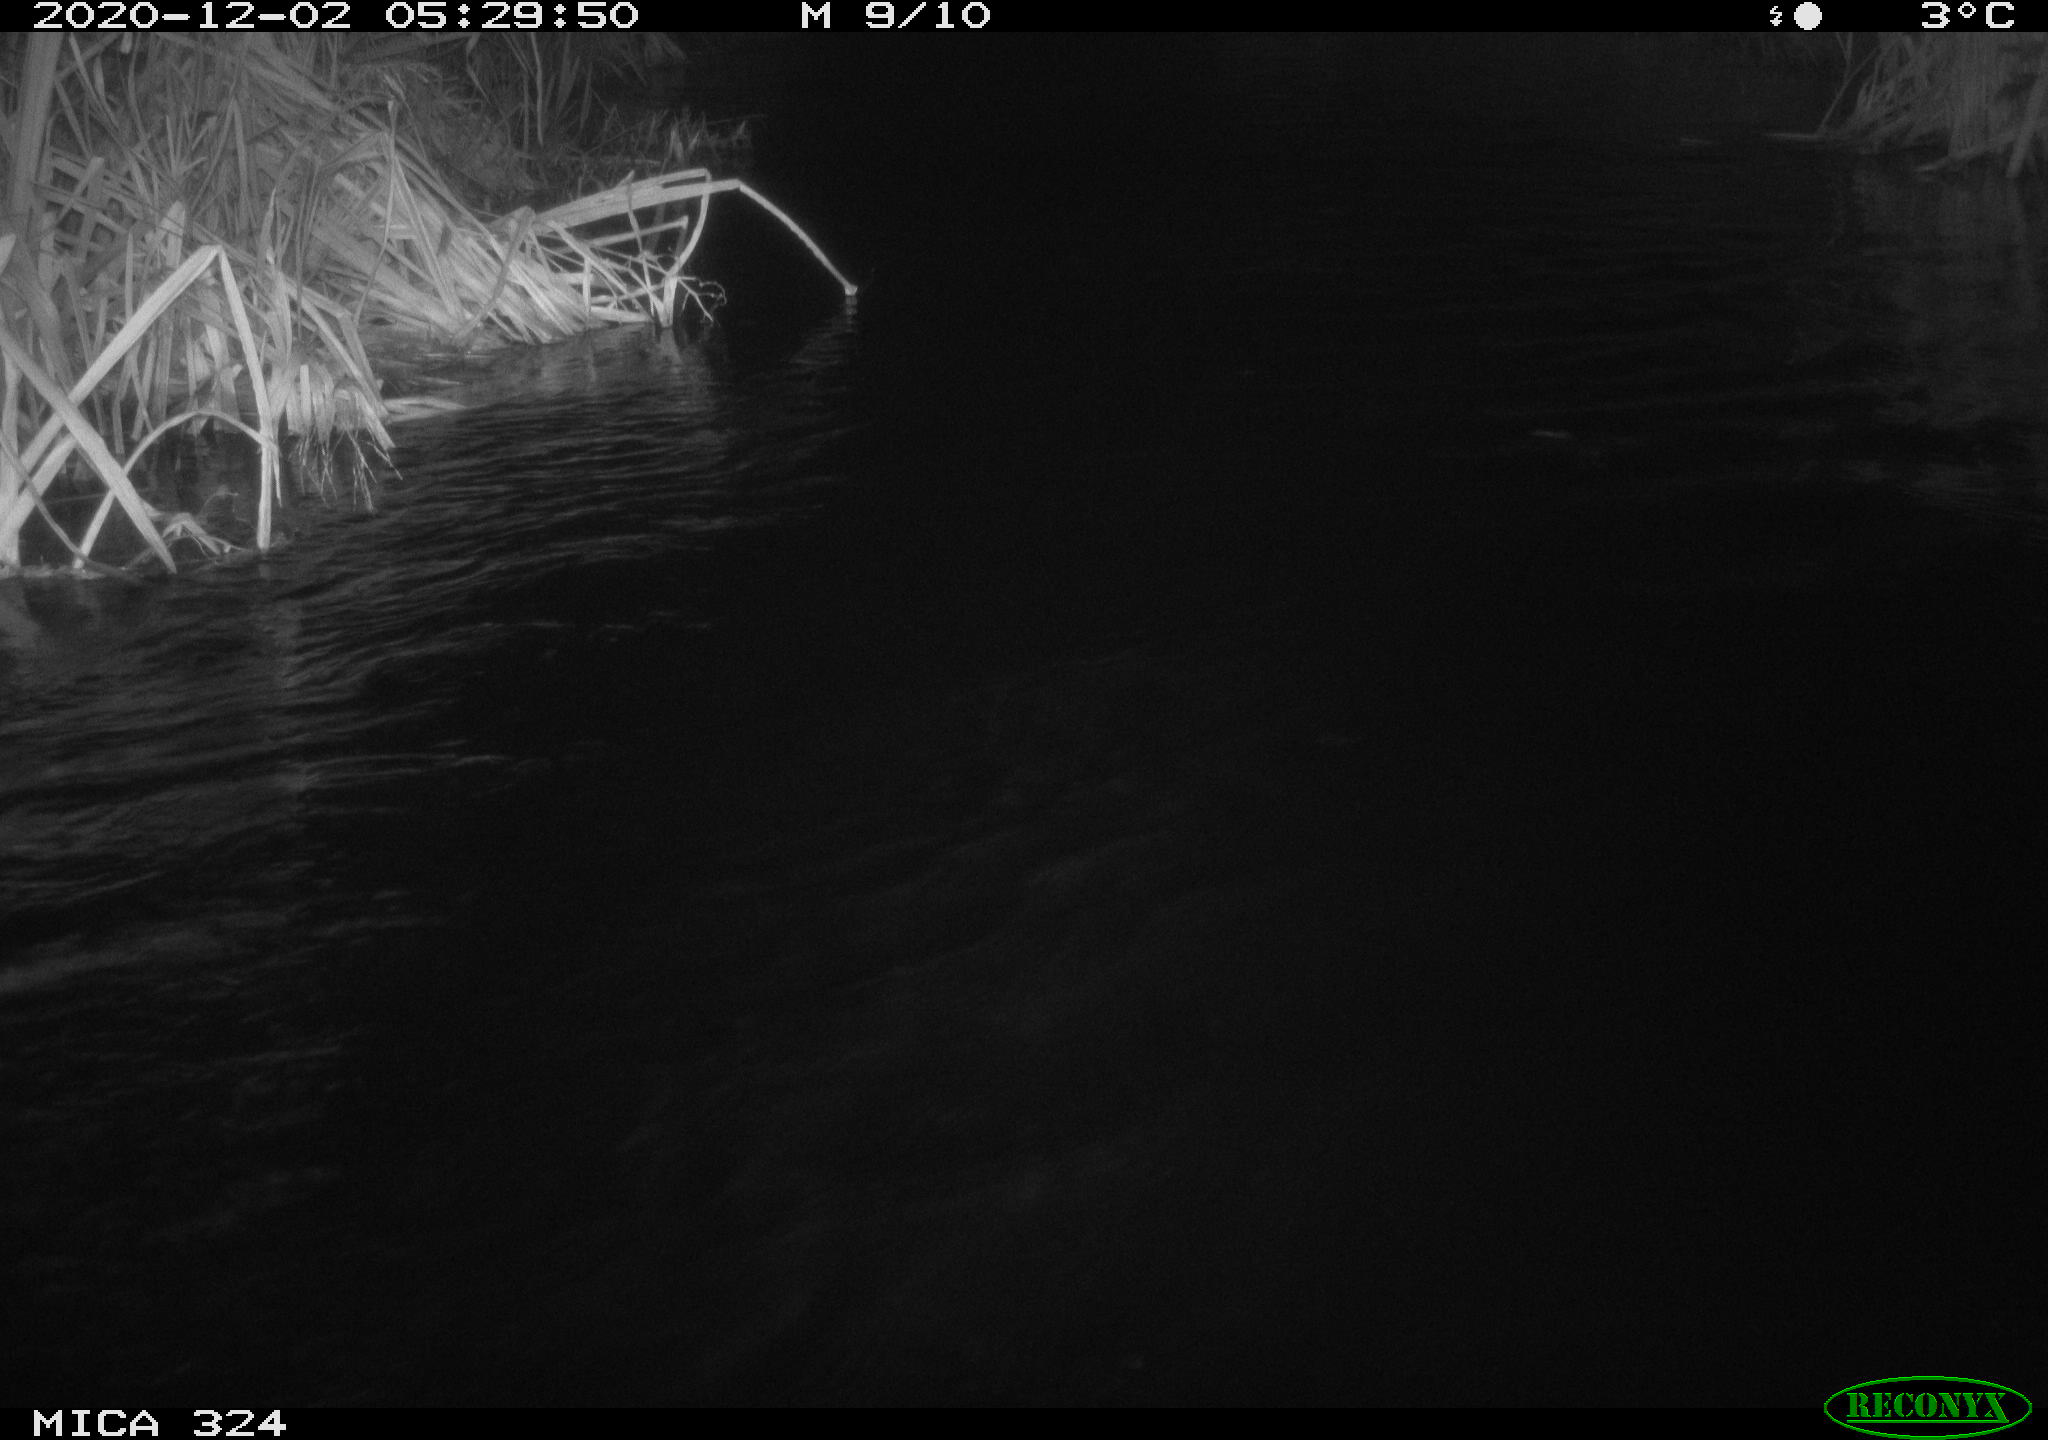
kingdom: Animalia
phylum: Chordata
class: Mammalia
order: Rodentia
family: Myocastoridae
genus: Myocastor
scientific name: Myocastor coypus
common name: Coypu
